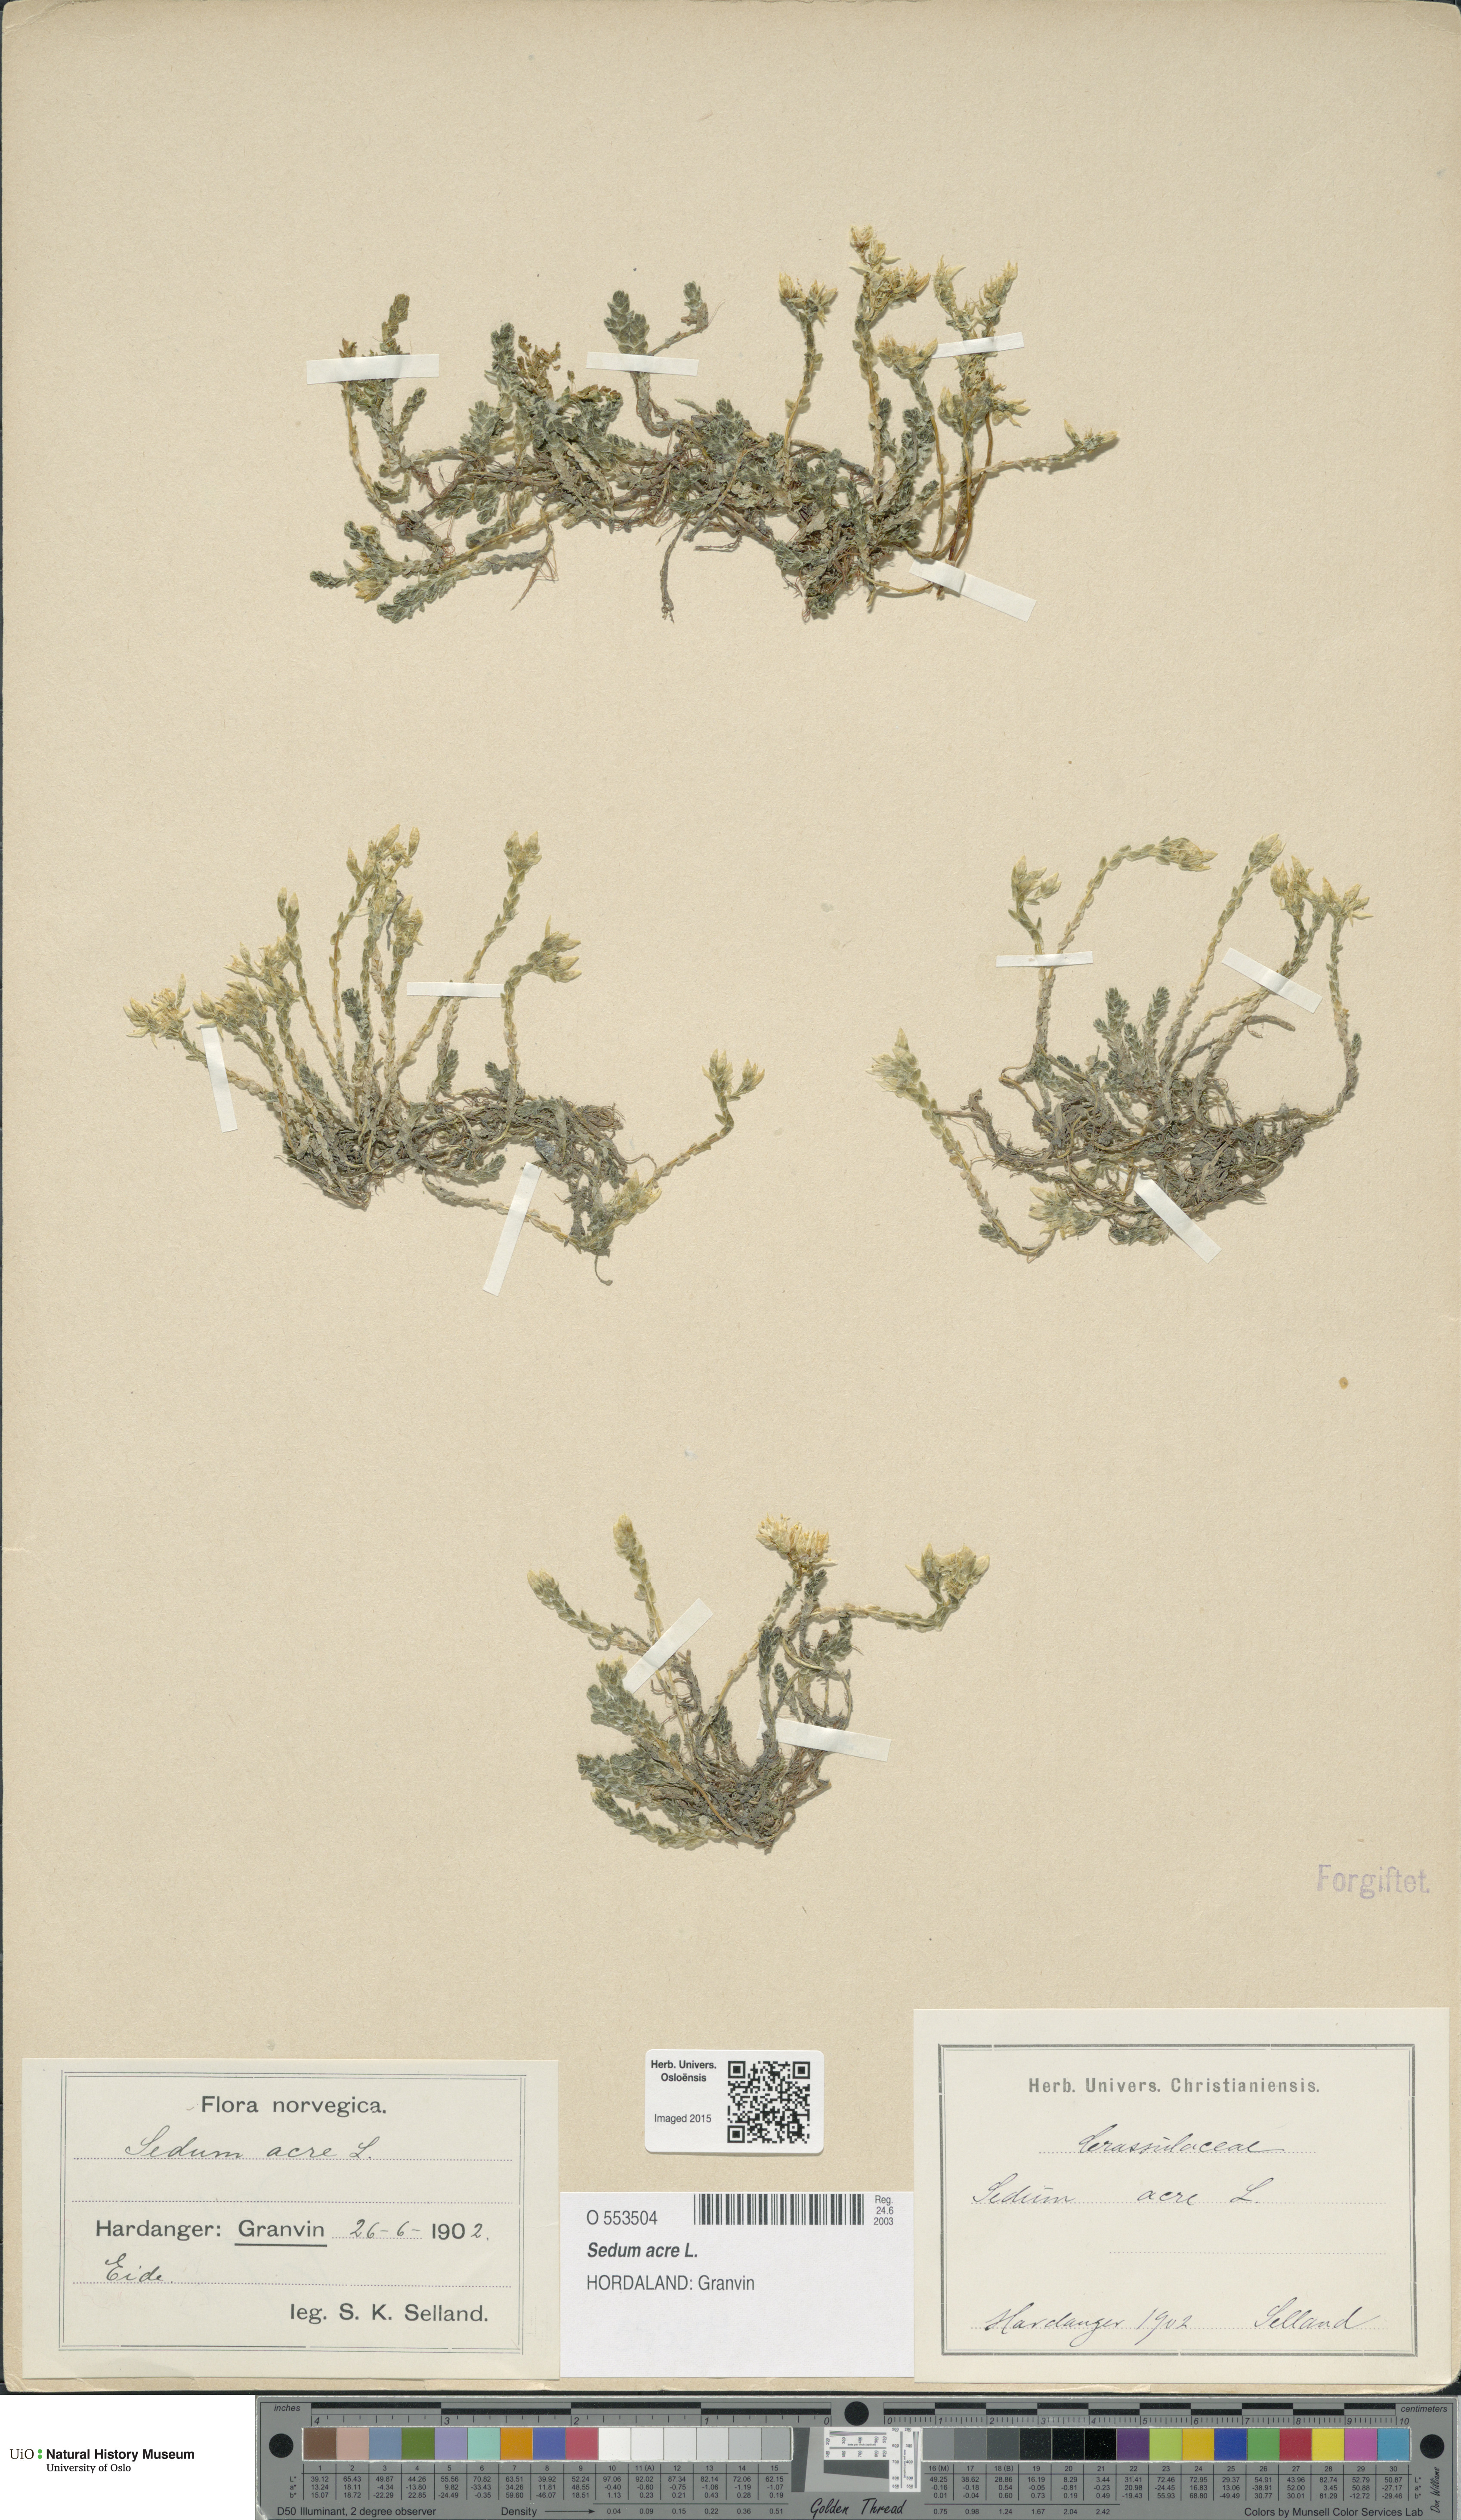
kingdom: Plantae
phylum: Tracheophyta
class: Magnoliopsida
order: Saxifragales
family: Crassulaceae
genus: Sedum
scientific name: Sedum acre
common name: Biting stonecrop
